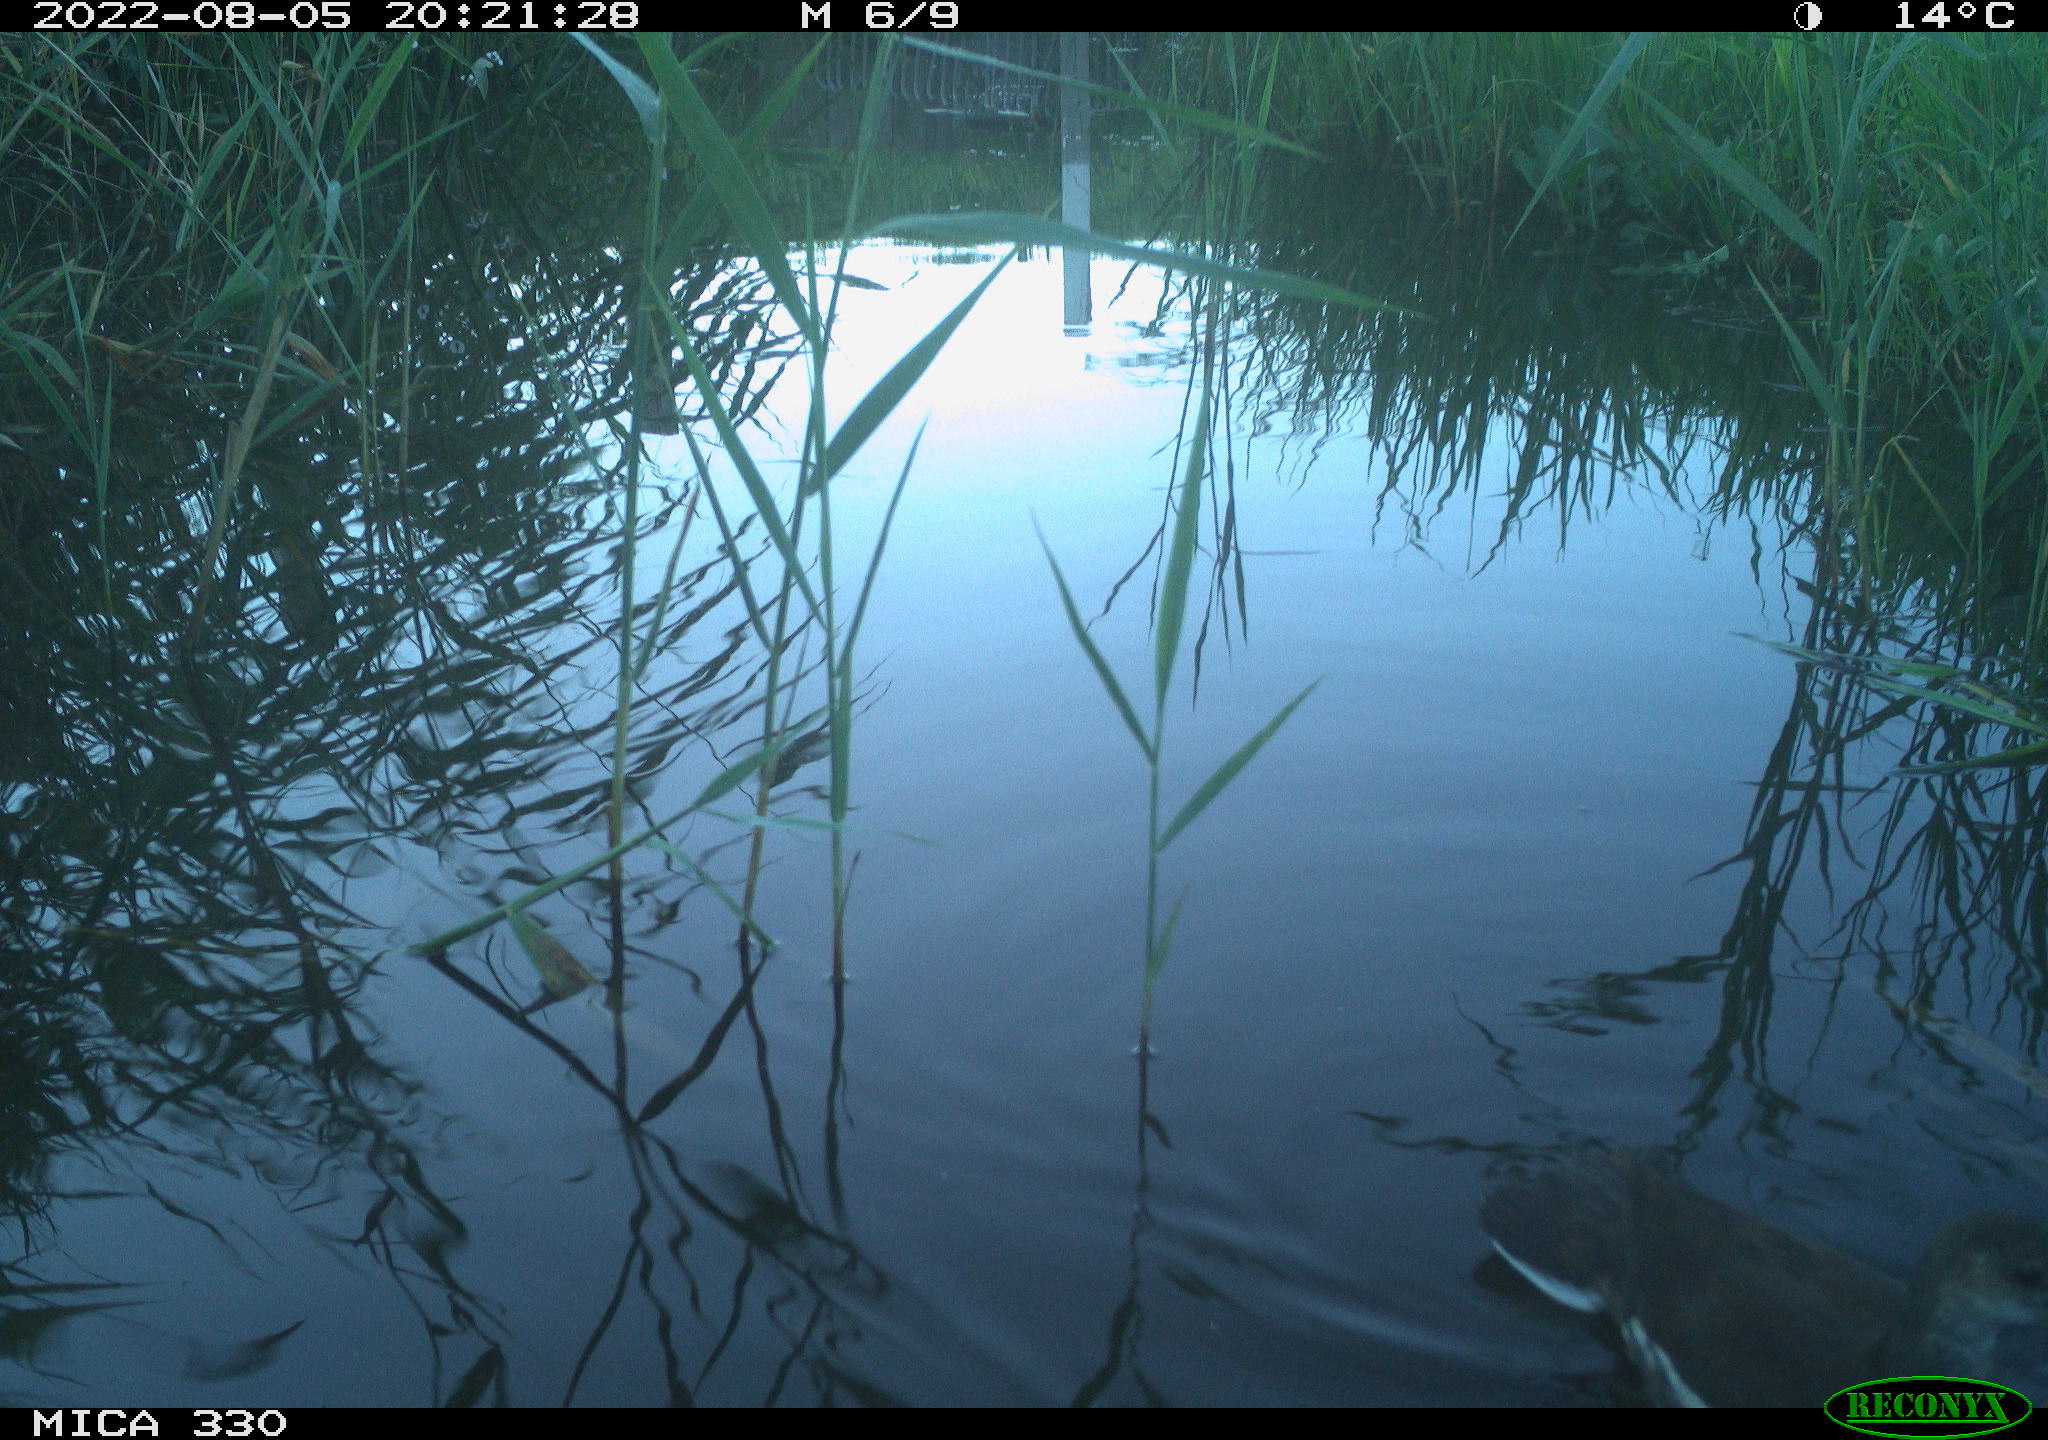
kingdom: Animalia
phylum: Chordata
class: Aves
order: Gruiformes
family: Rallidae
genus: Gallinula
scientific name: Gallinula chloropus
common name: Common moorhen
